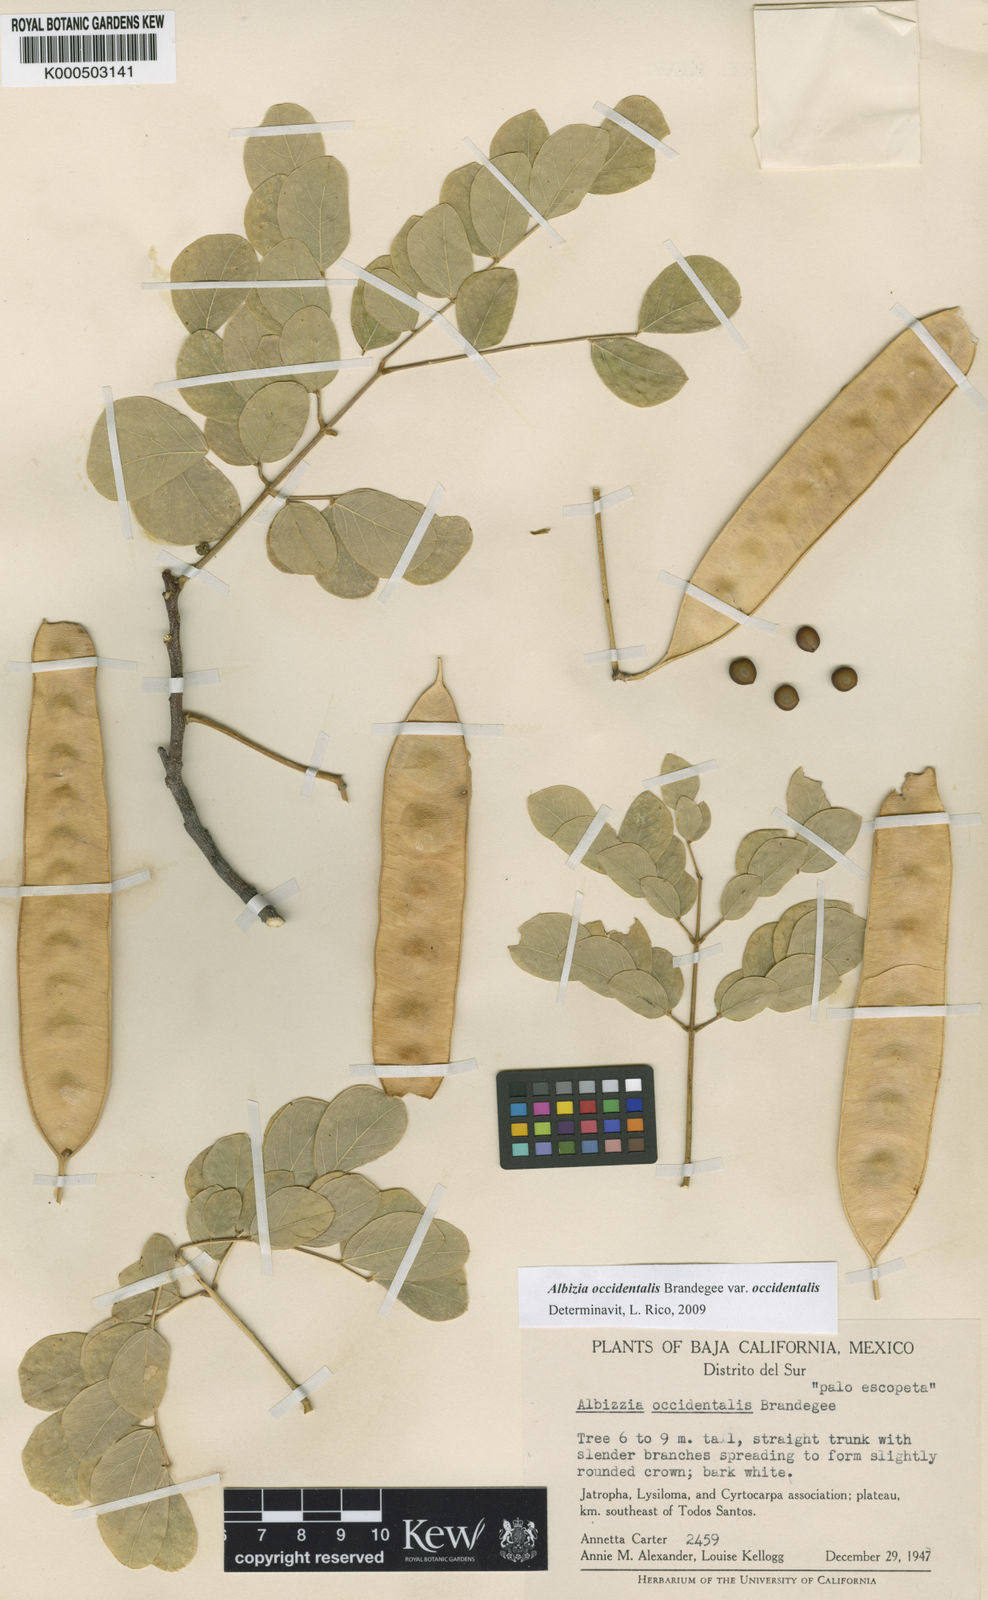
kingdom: Plantae
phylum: Tracheophyta
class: Magnoliopsida
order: Fabales
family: Fabaceae
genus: Albizia
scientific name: Albizia occidentalis
